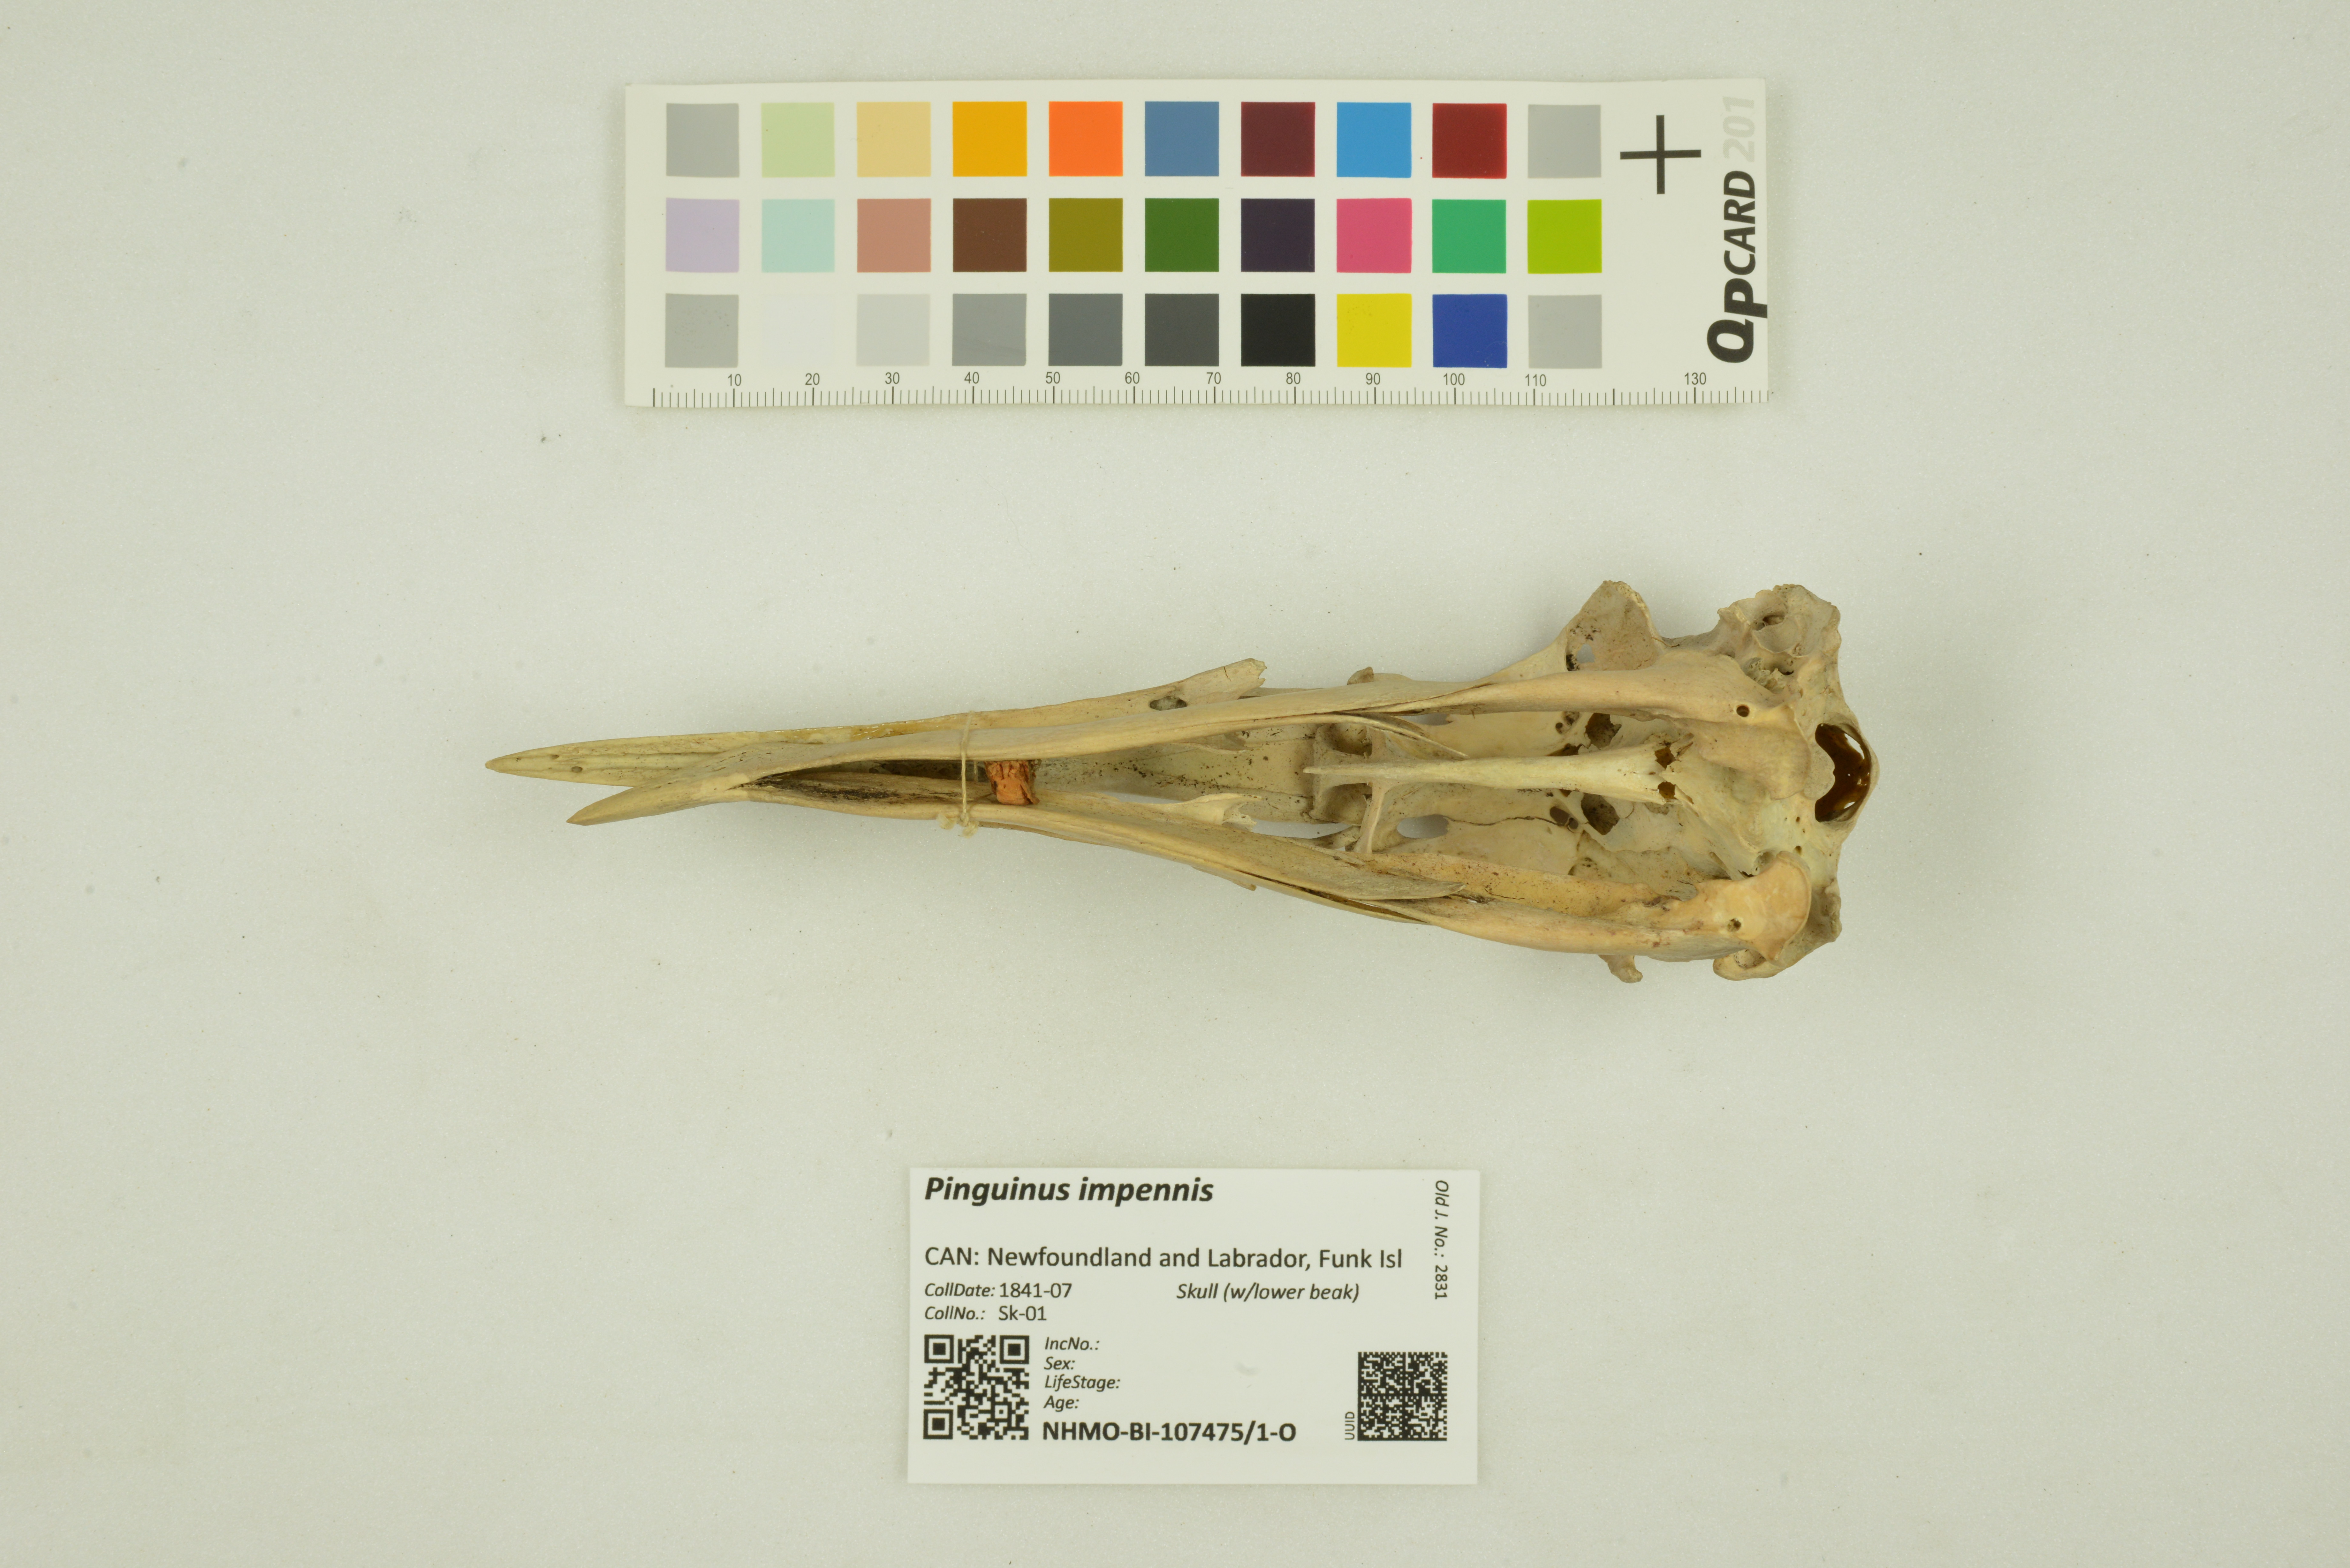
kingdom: Animalia
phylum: Chordata
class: Aves
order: Charadriiformes
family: Alcidae
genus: Pinguinus
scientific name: Pinguinus impennis
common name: Great auk
